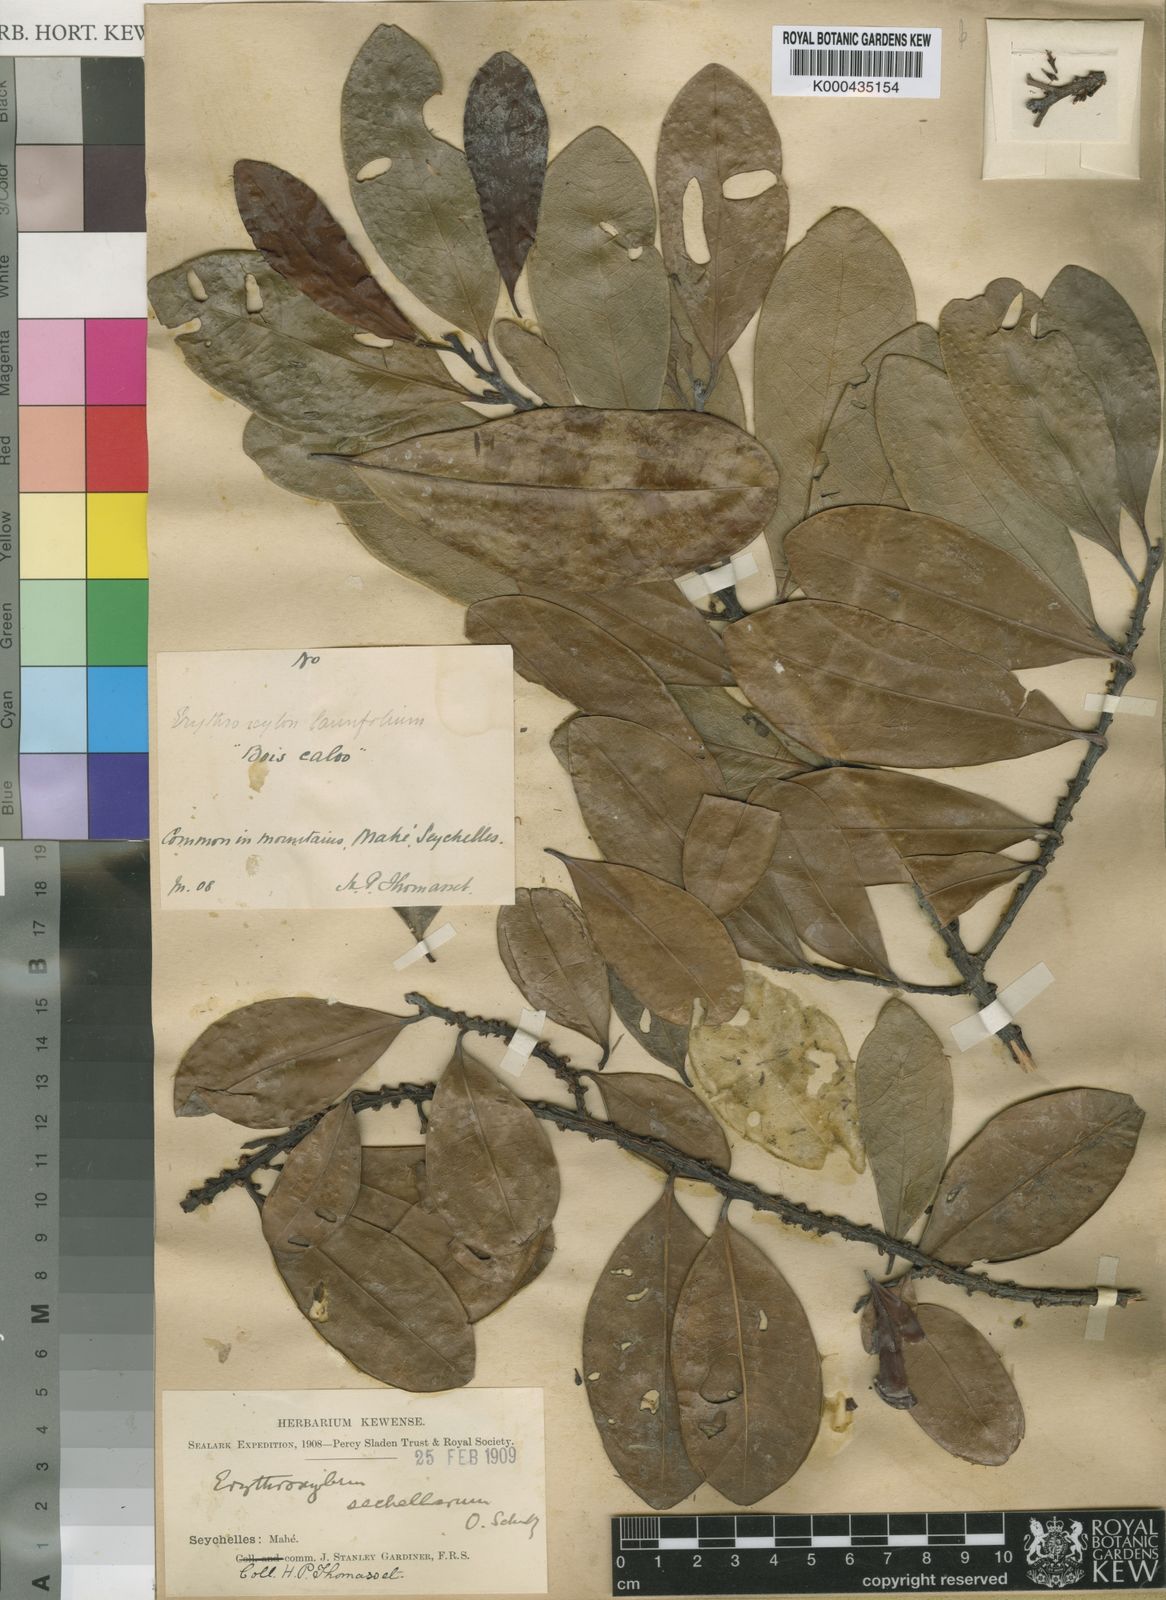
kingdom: Plantae
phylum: Tracheophyta
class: Magnoliopsida
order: Malpighiales
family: Erythroxylaceae
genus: Erythroxylum
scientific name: Erythroxylum sechellarum
